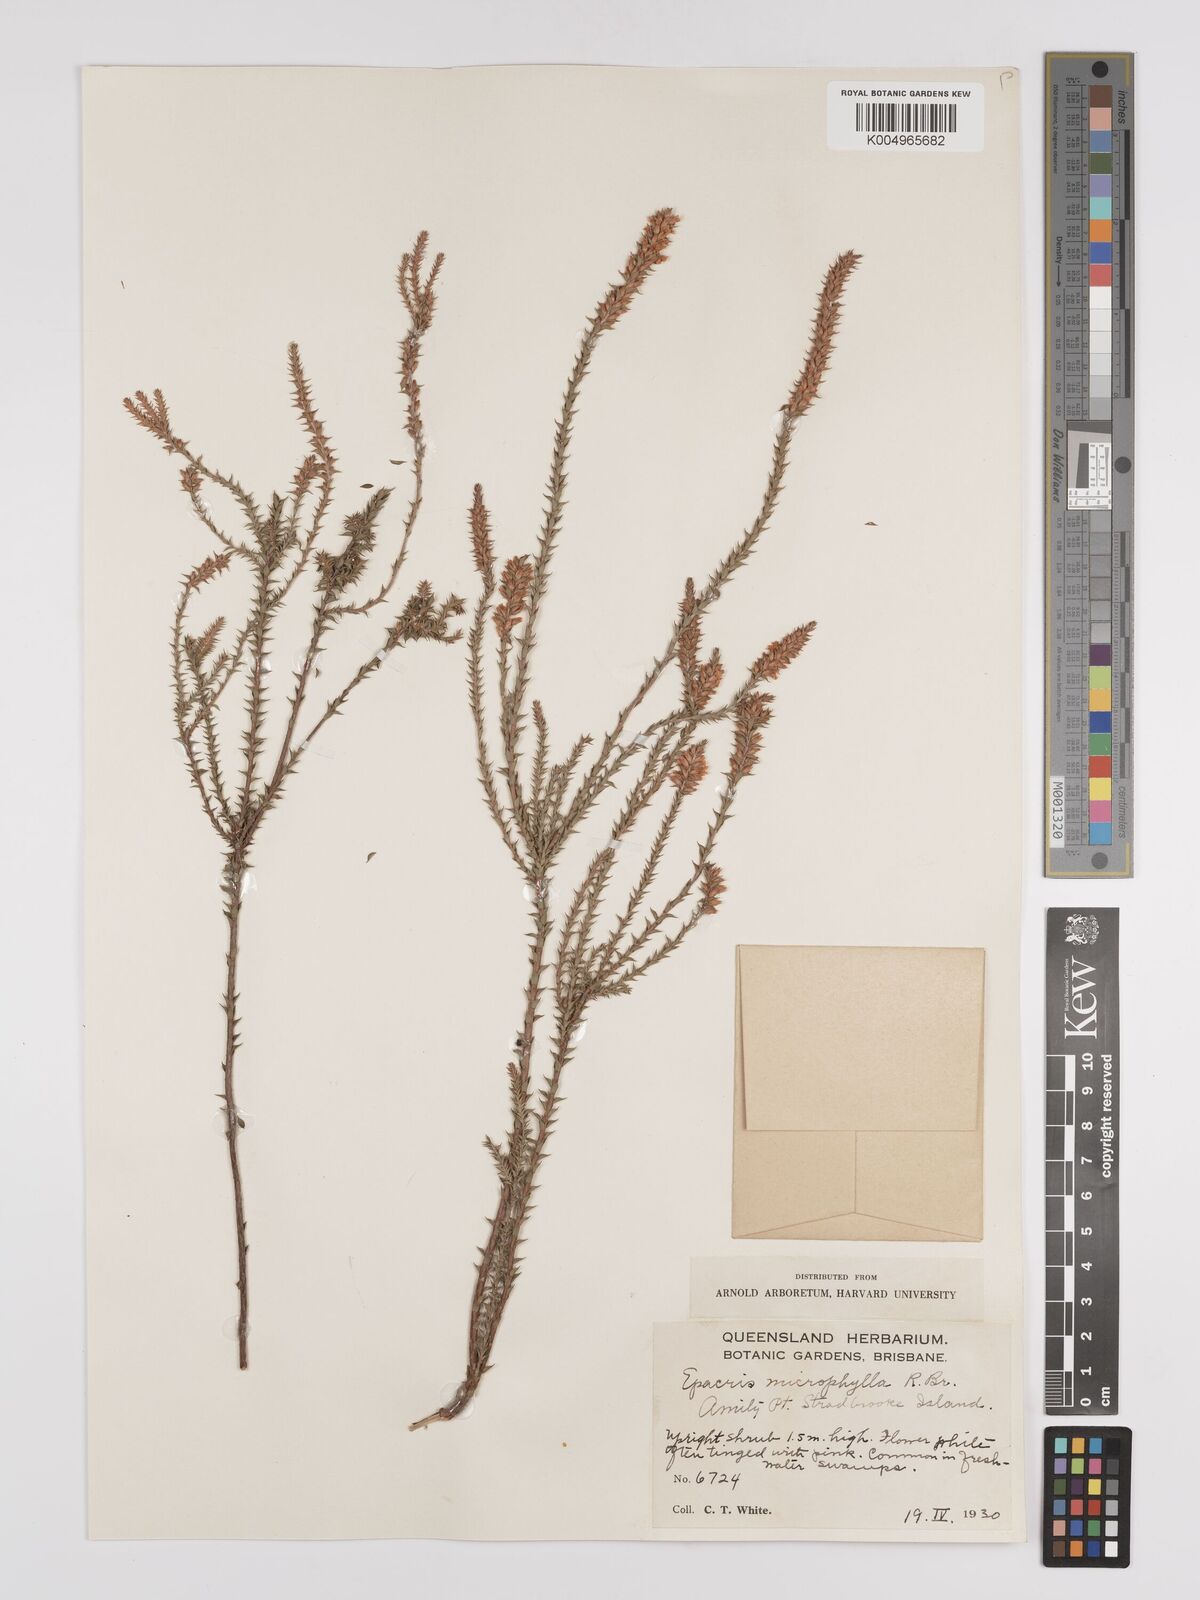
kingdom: Plantae
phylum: Tracheophyta
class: Magnoliopsida
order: Ericales
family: Ericaceae
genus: Epacris
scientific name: Epacris
